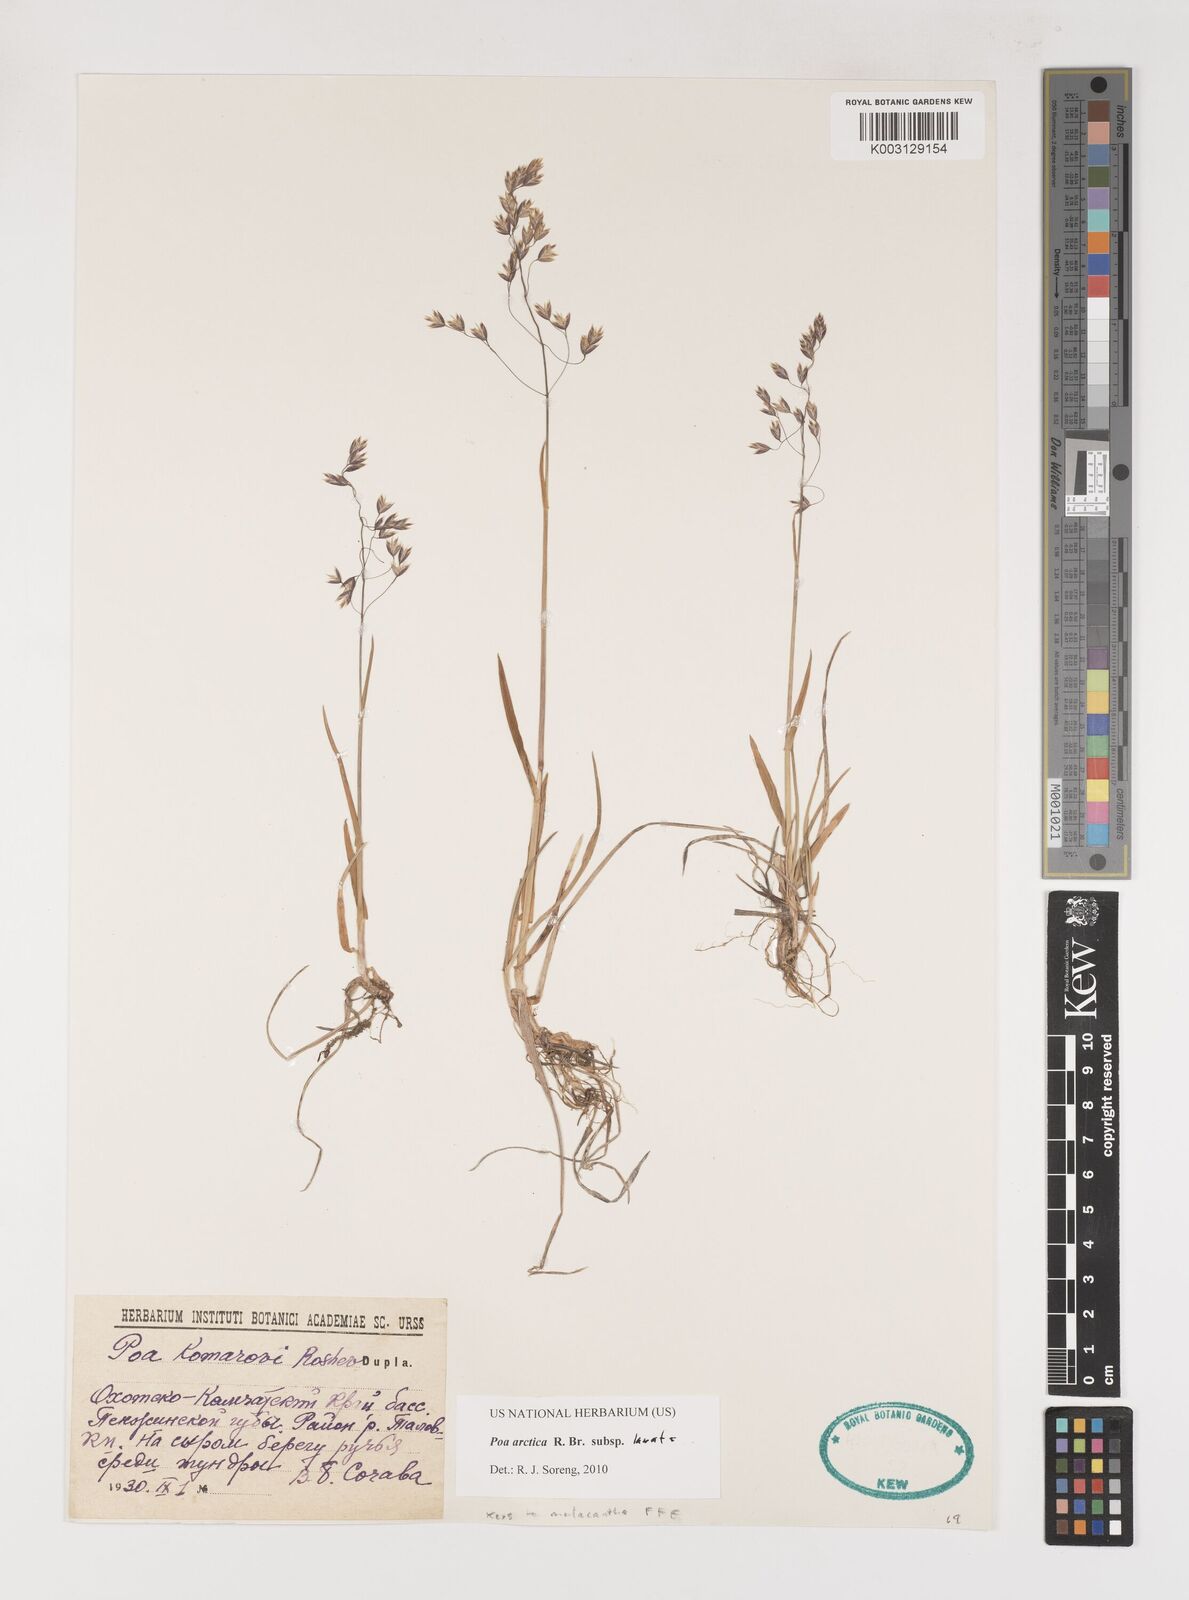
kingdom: Plantae
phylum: Tracheophyta
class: Liliopsida
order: Poales
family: Poaceae
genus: Poa
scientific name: Poa arctica
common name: Arctic bluegrass
